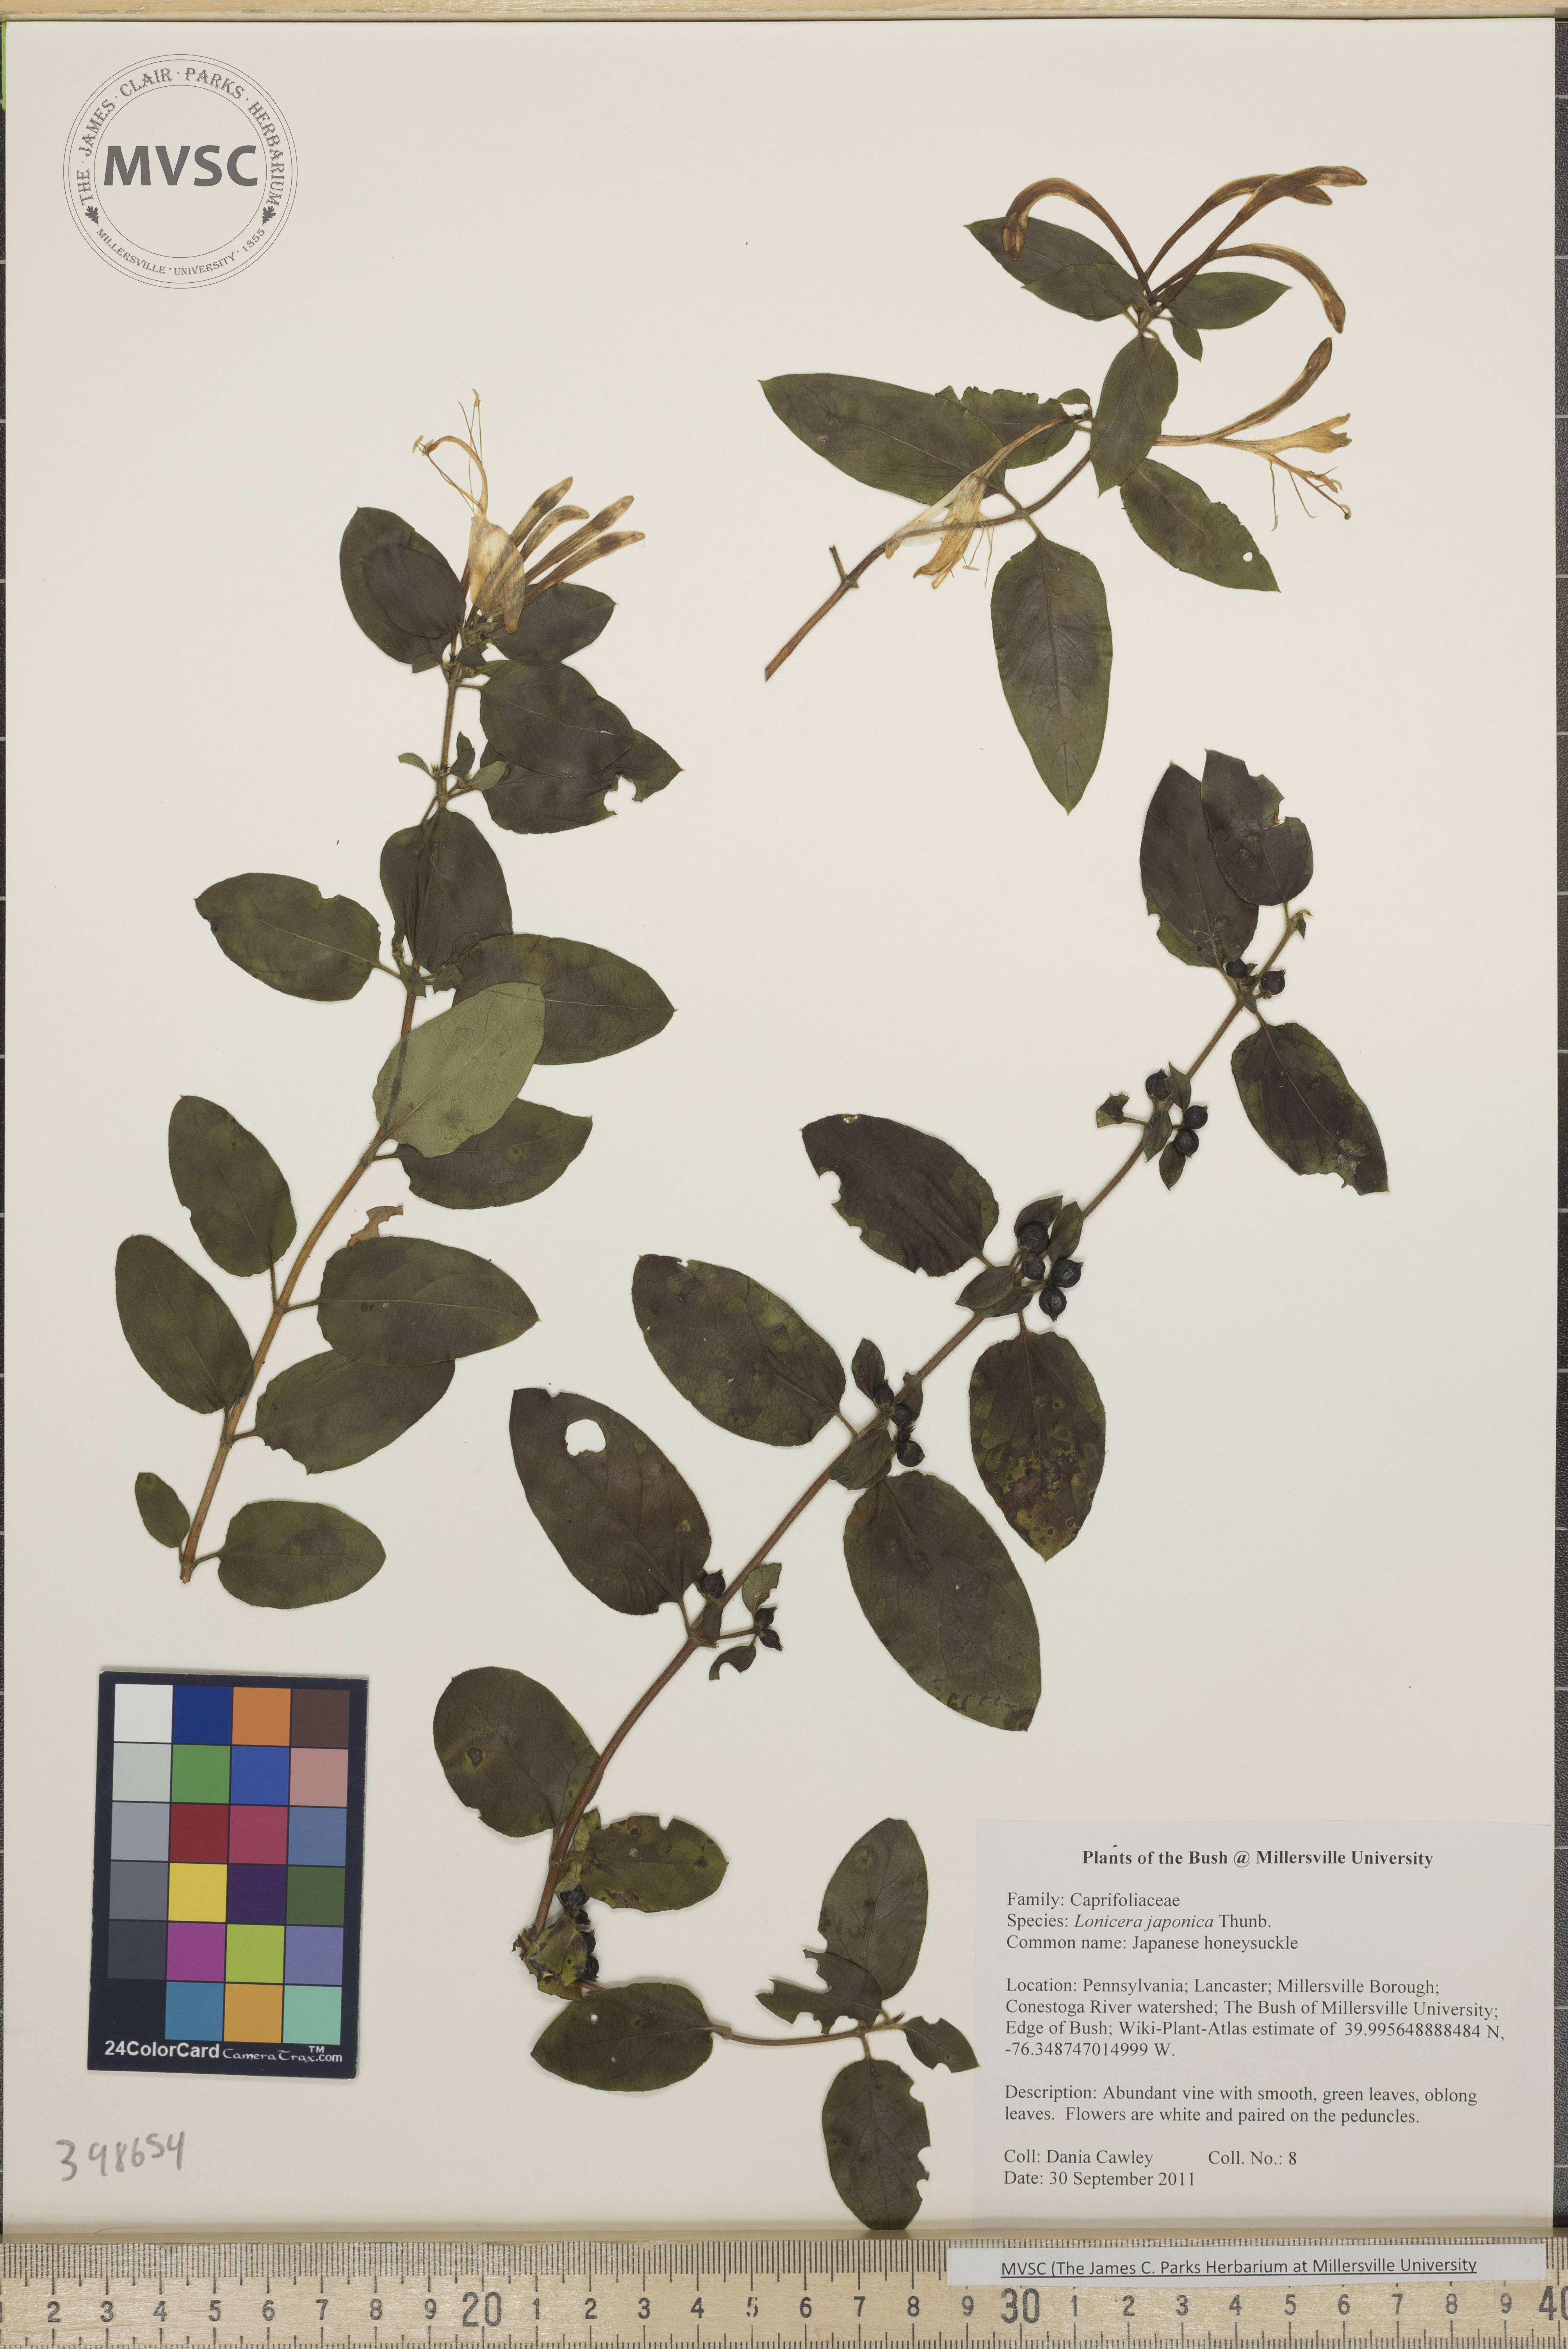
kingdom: Plantae
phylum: Tracheophyta
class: Magnoliopsida
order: Dipsacales
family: Caprifoliaceae
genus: Lonicera
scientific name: Lonicera japonica
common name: Japanese honeysuckle
